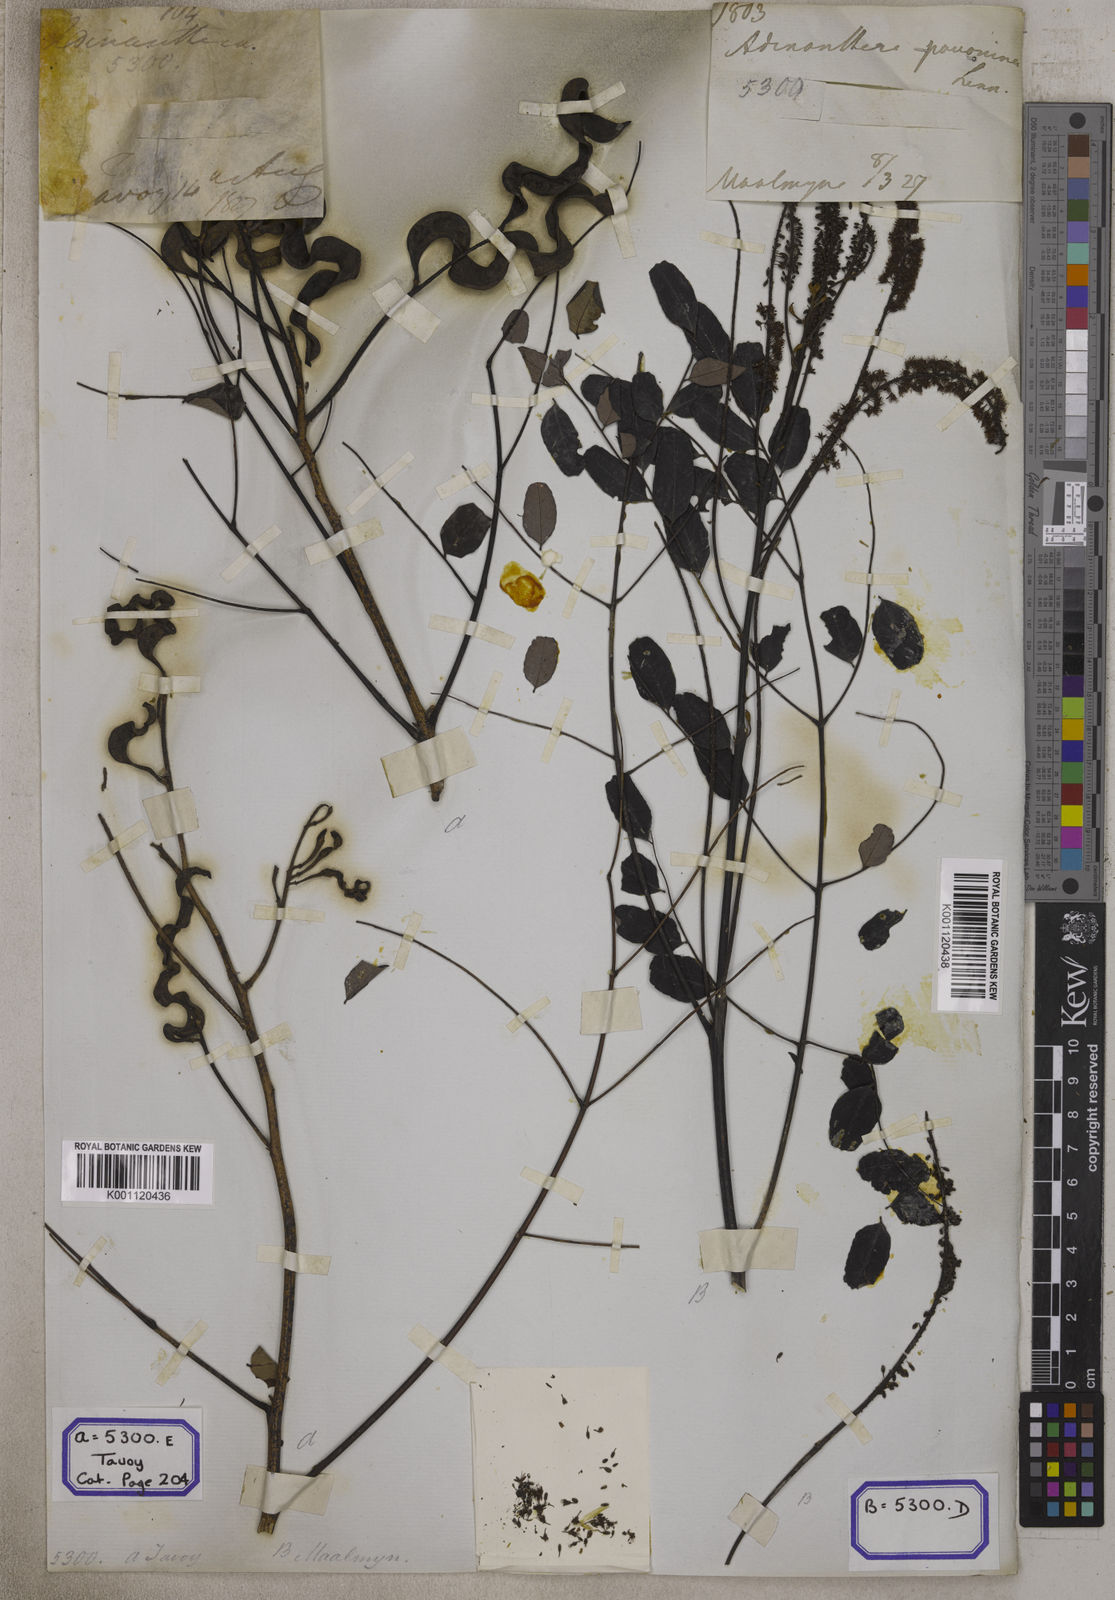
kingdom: Plantae
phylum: Tracheophyta
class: Magnoliopsida
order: Fabales
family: Fabaceae
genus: Adenanthera
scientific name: Adenanthera pavonina
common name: Red beadtree
